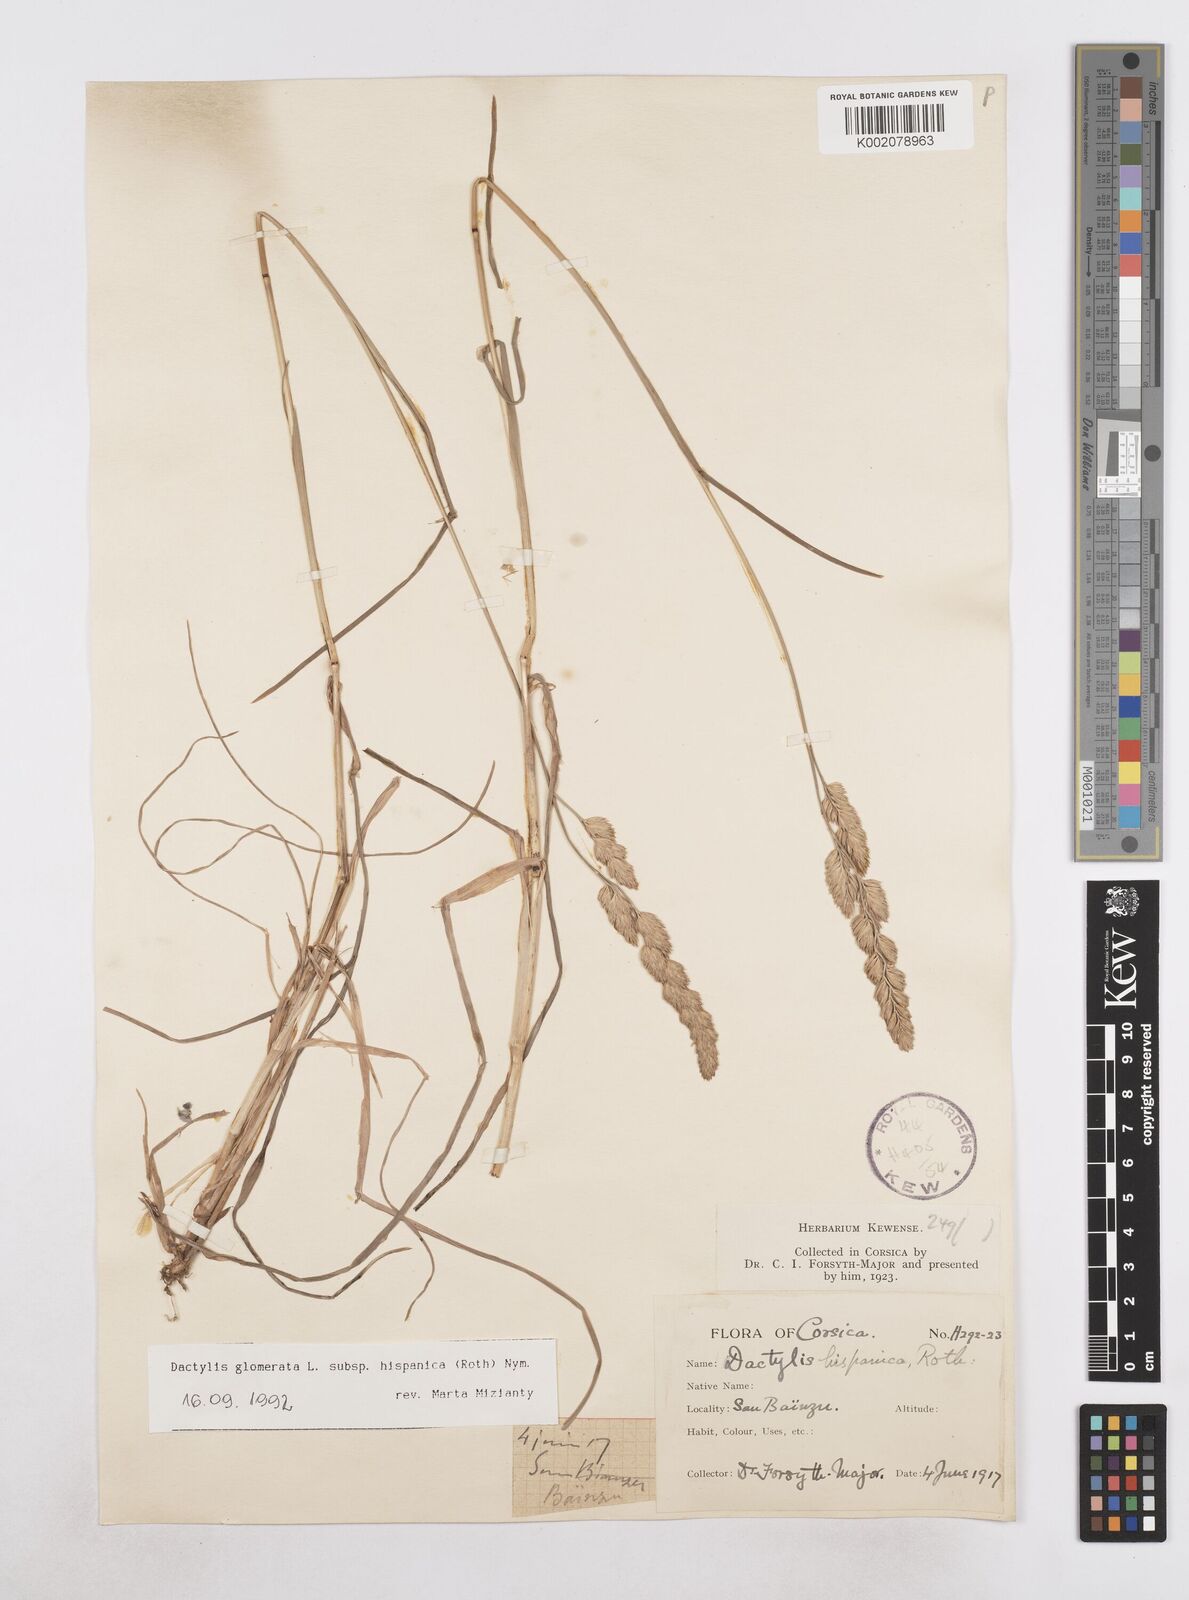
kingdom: Plantae
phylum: Tracheophyta
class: Liliopsida
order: Poales
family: Poaceae
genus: Dactylis
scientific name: Dactylis glomerata
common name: Orchardgrass
